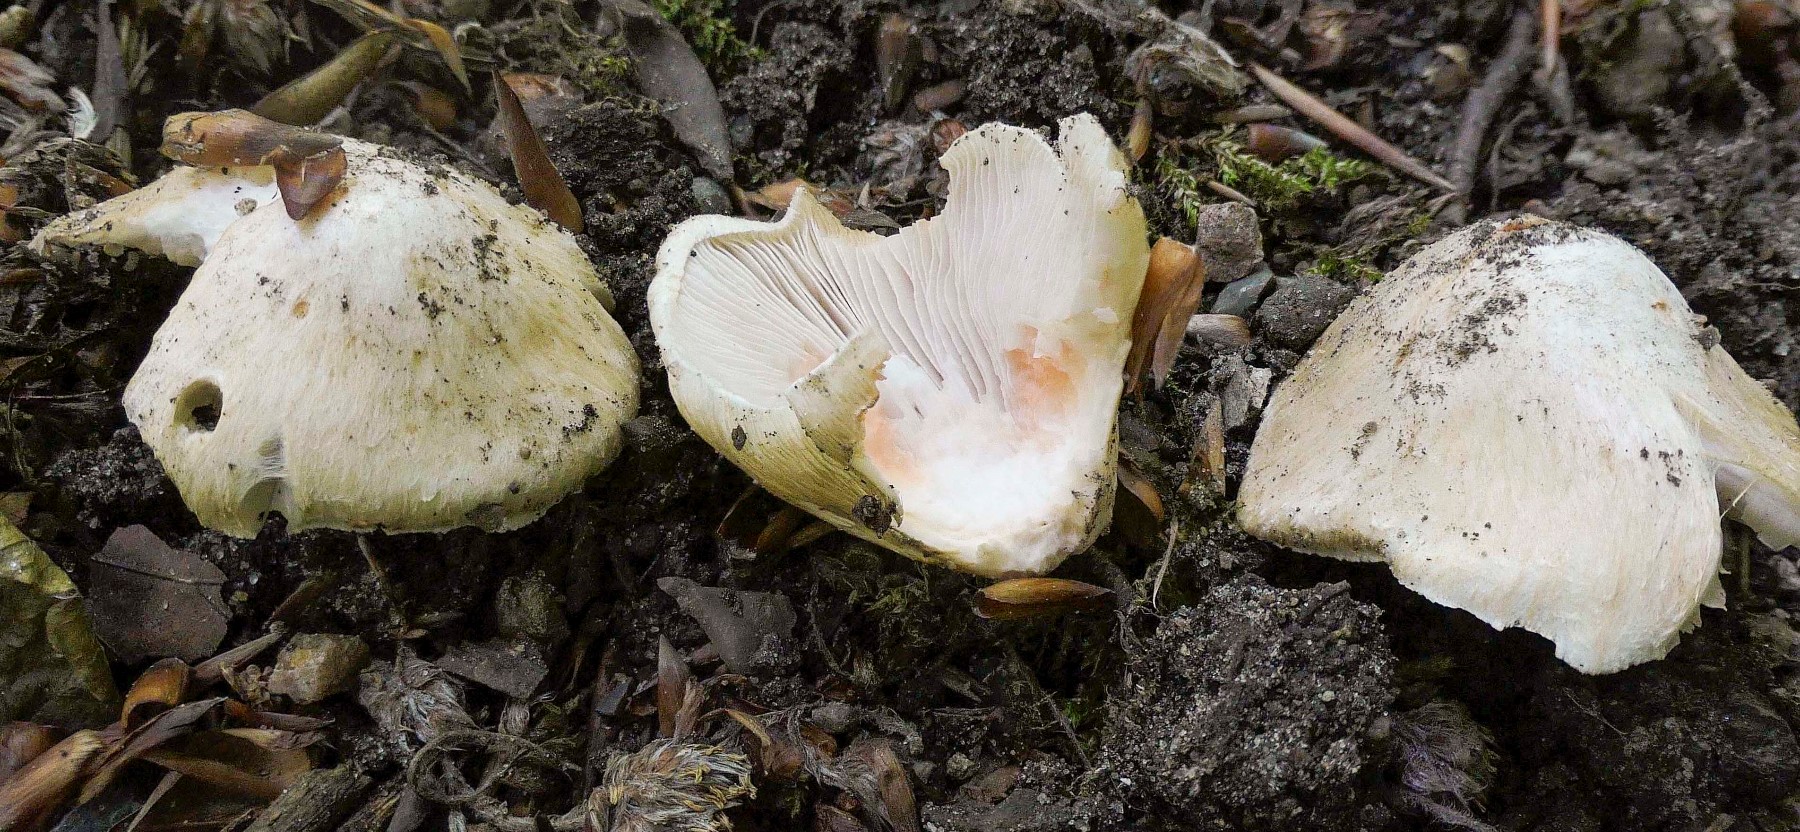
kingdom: Fungi
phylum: Basidiomycota
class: Agaricomycetes
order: Agaricales
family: Inocybaceae
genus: Inosperma
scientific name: Inosperma erubescens
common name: giftig trævlhat
